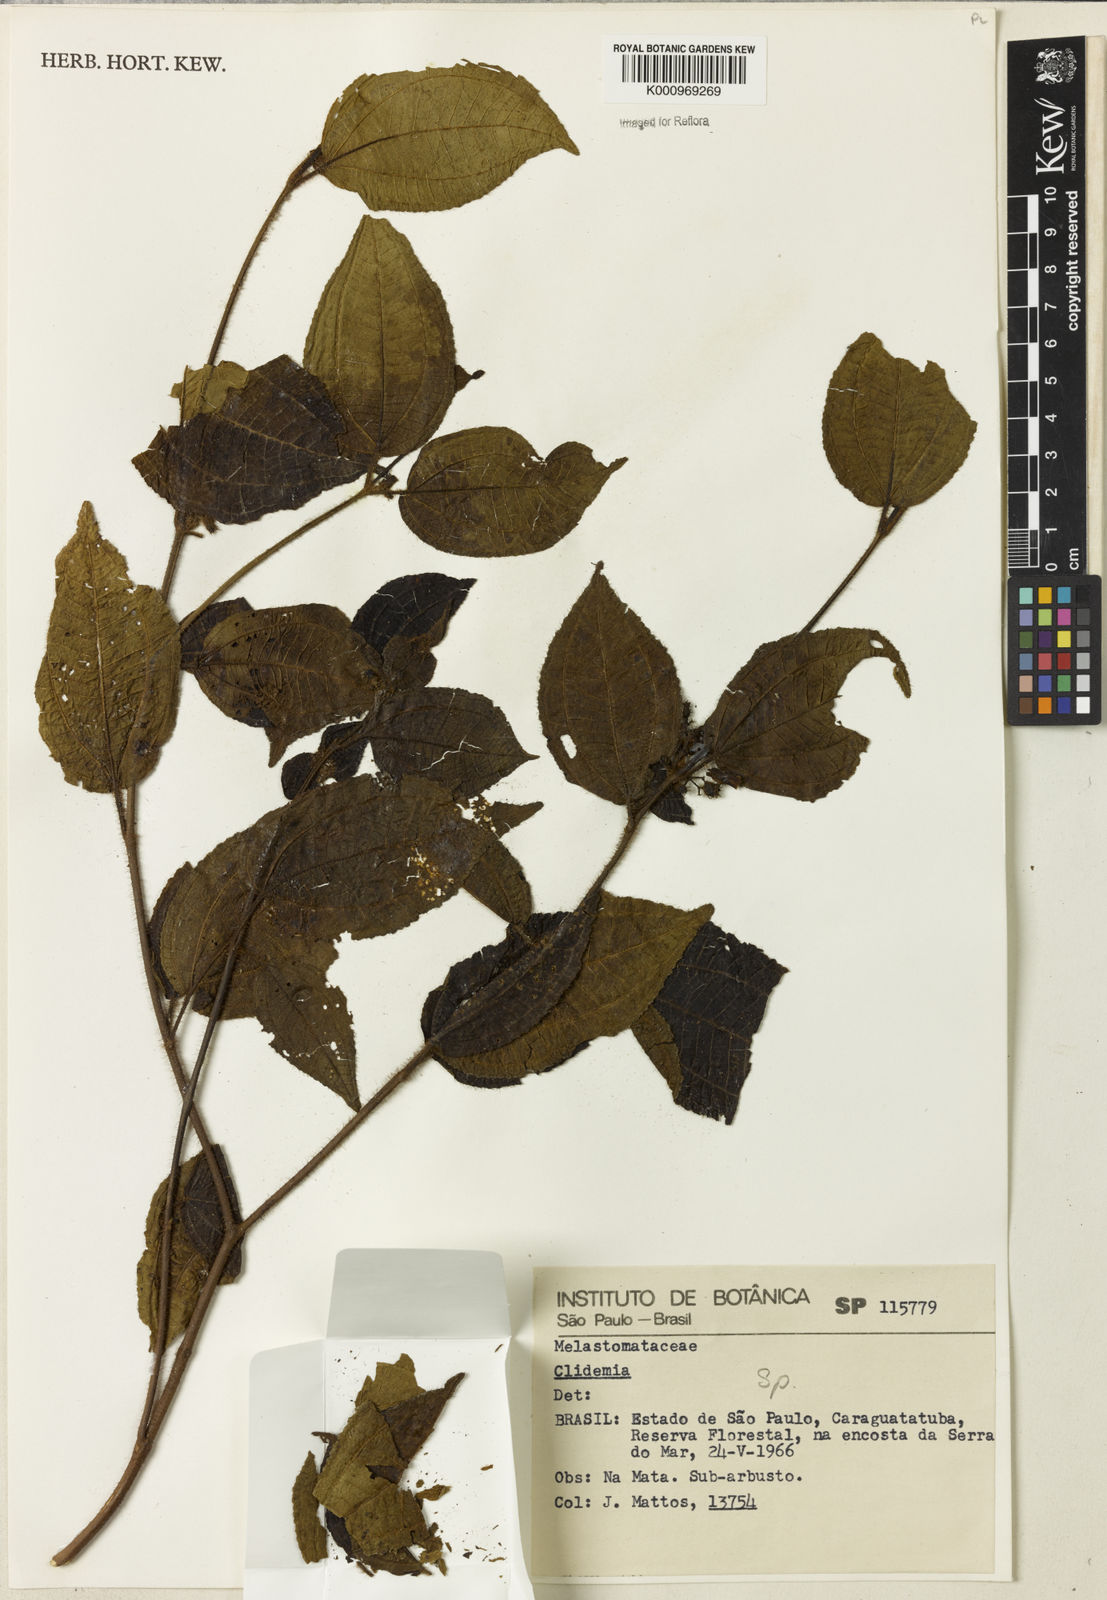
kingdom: Plantae
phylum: Tracheophyta
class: Magnoliopsida
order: Myrtales
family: Melastomataceae
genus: Miconia
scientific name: Miconia
